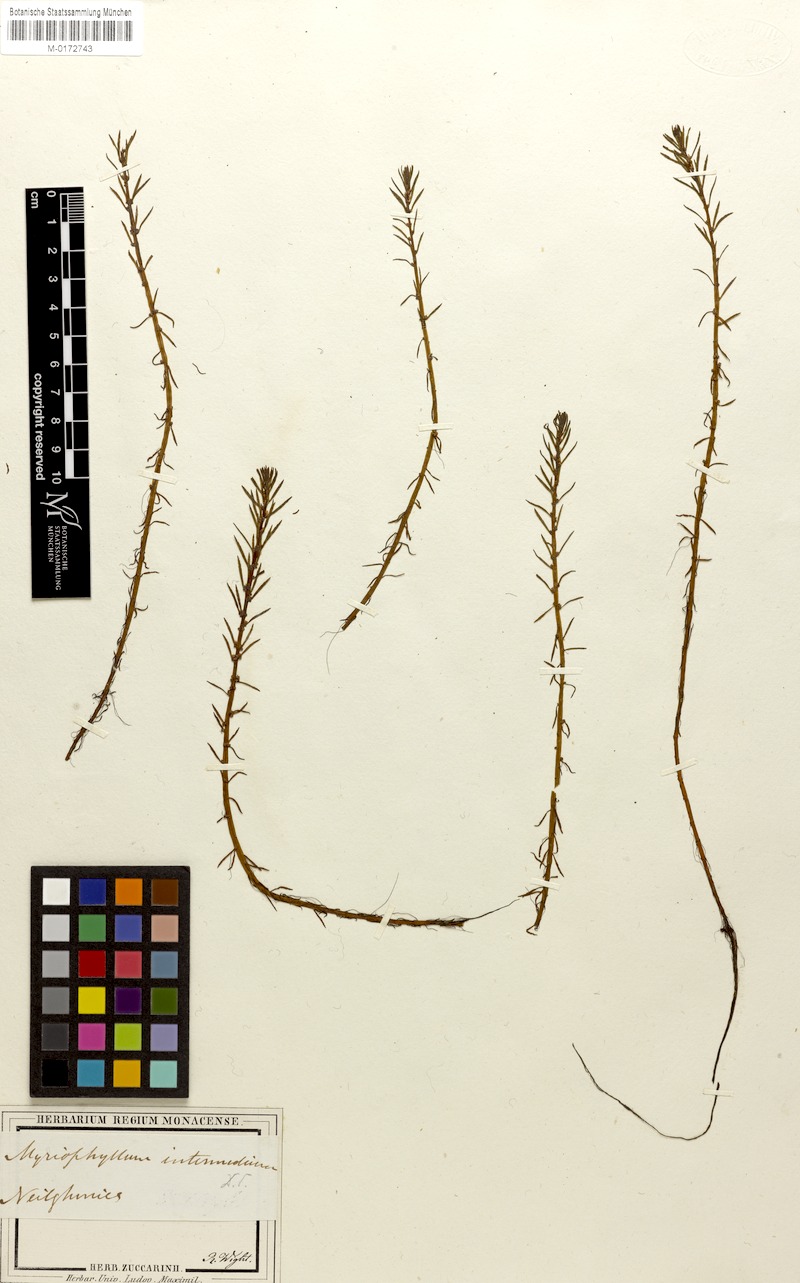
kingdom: Plantae
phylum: Tracheophyta
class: Magnoliopsida
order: Saxifragales
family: Haloragaceae
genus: Myriophyllum
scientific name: Myriophyllum indicum
